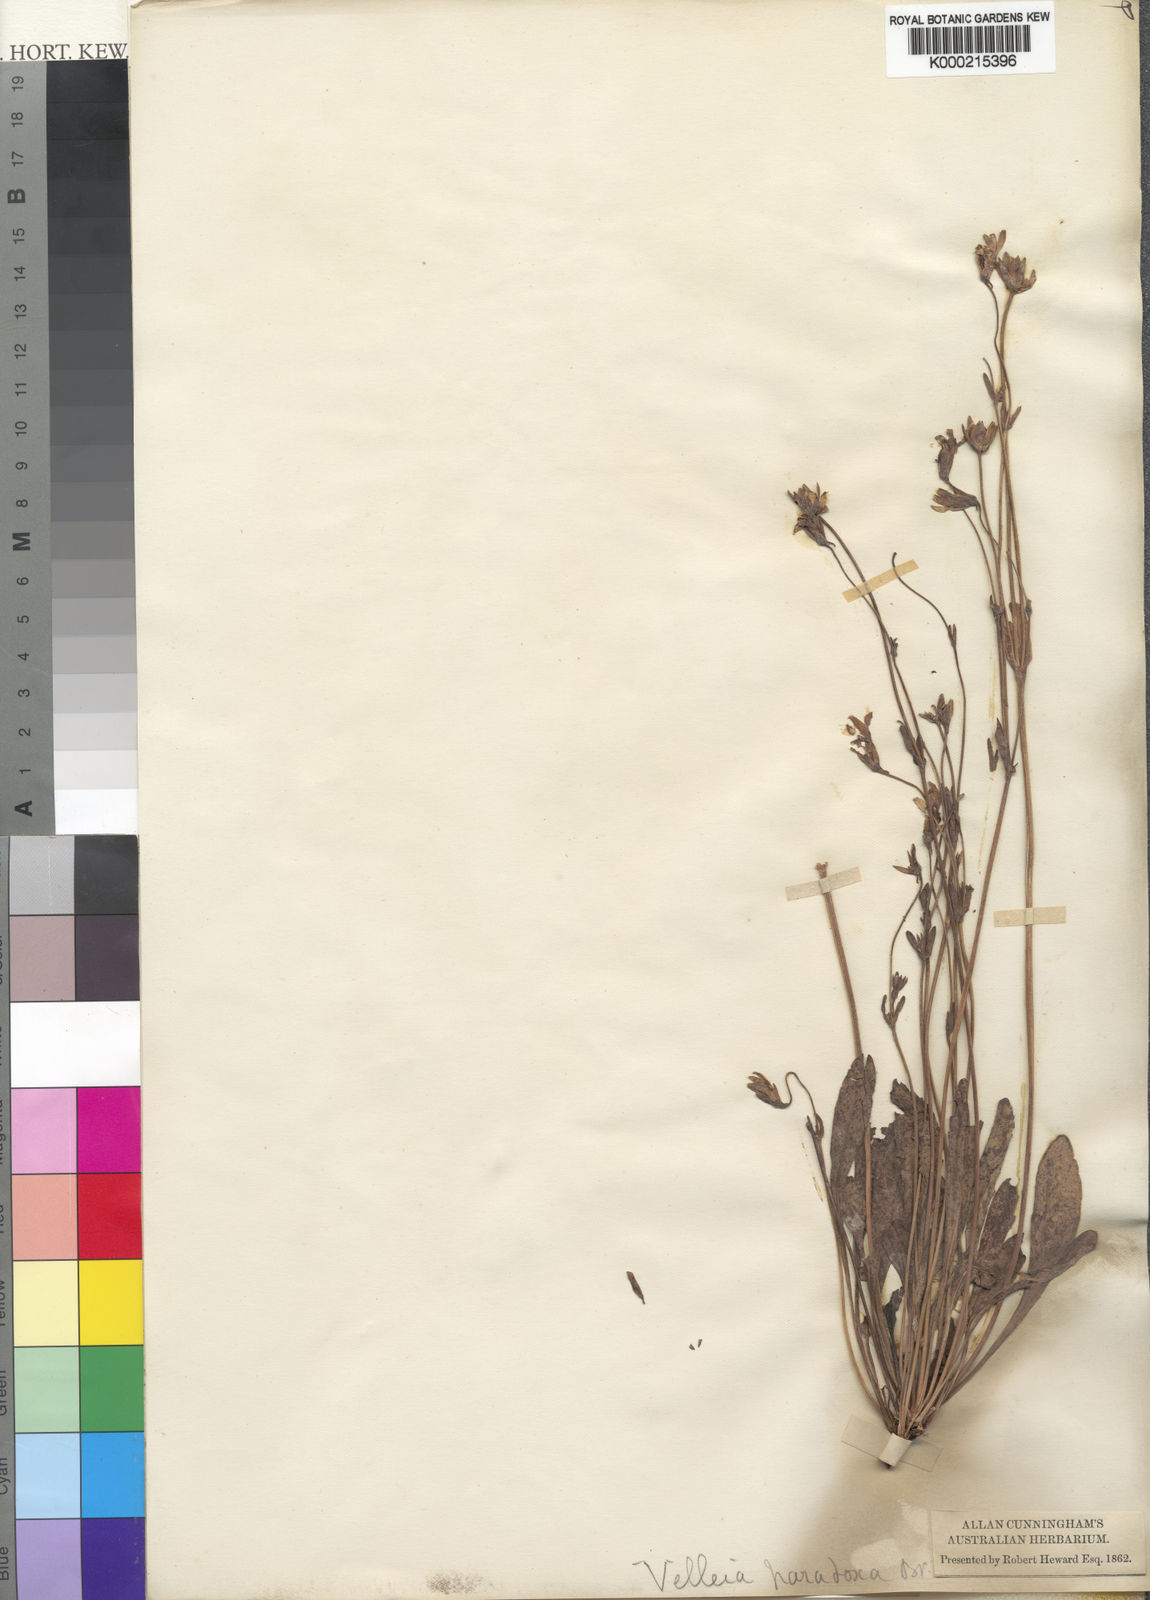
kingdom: Plantae
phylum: Tracheophyta
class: Magnoliopsida
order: Asterales
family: Goodeniaceae
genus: Goodenia
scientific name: Goodenia paradoxa
